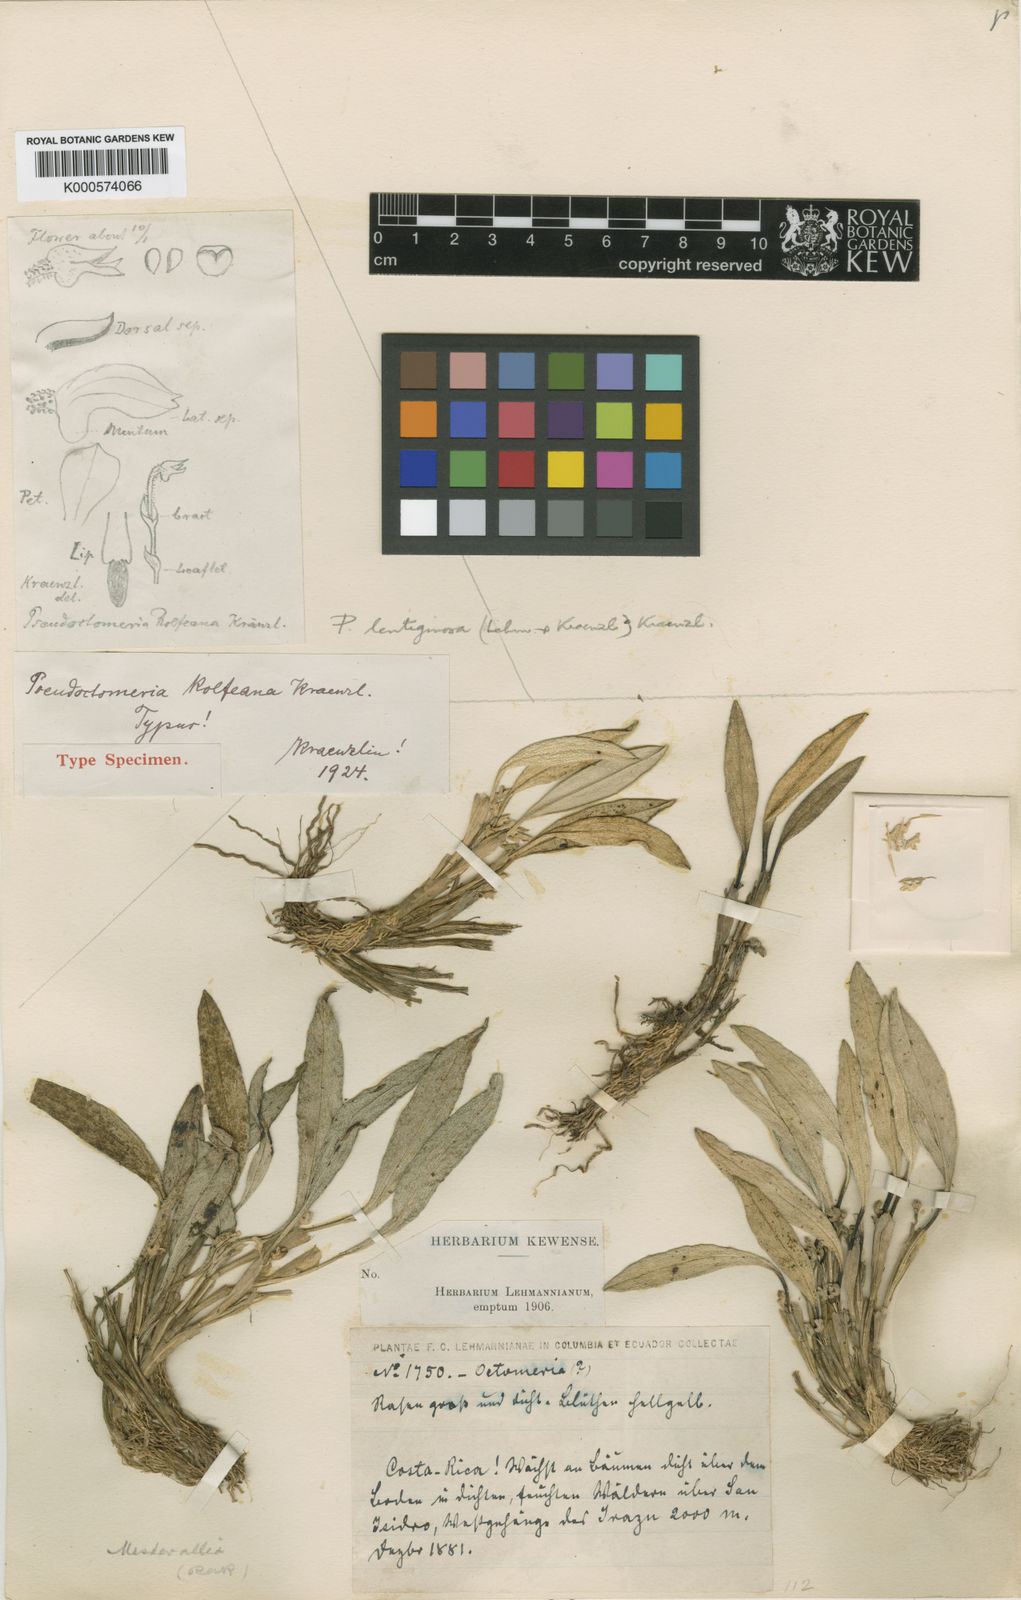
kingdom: Plantae
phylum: Tracheophyta
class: Liliopsida
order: Asparagales
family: Orchidaceae
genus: Specklinia
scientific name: Specklinia lentiginosa
